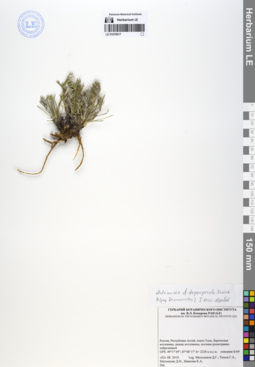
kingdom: Plantae
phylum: Tracheophyta
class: Magnoliopsida
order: Asterales
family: Asteraceae
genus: Artemisia
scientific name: Artemisia pycnorrhiza
